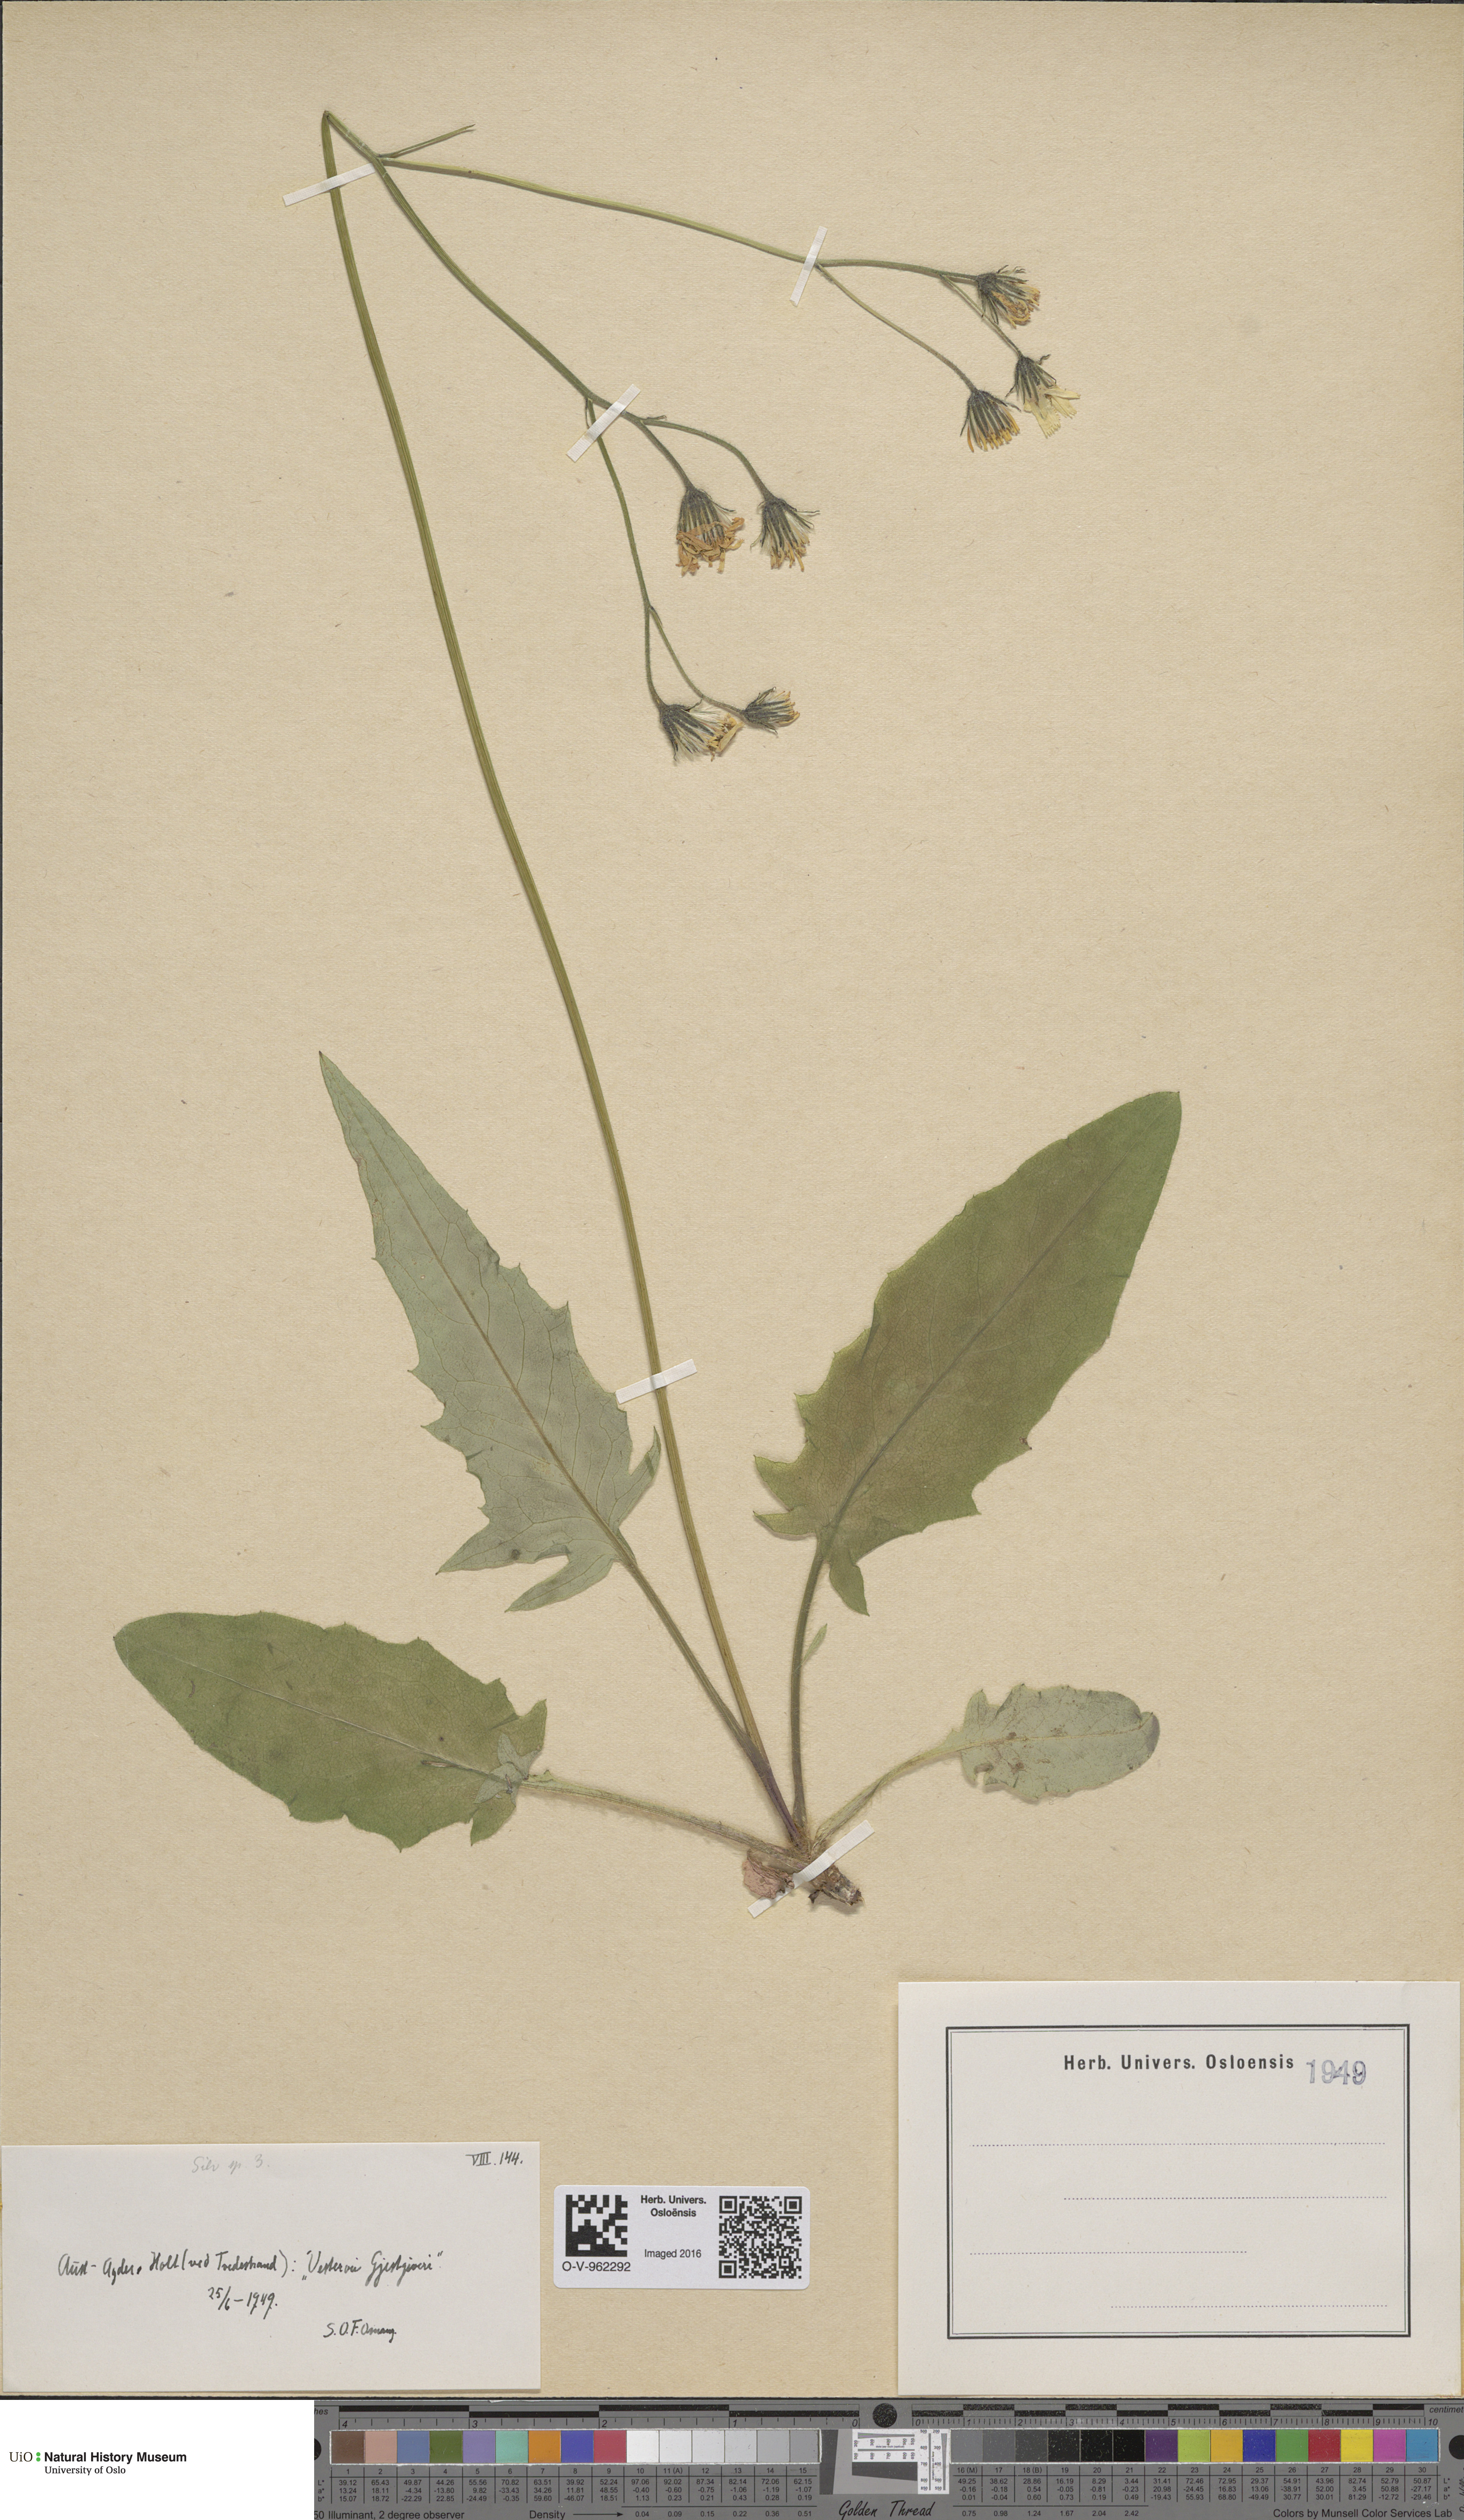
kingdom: Plantae
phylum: Tracheophyta
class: Magnoliopsida
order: Asterales
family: Asteraceae
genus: Hieracium
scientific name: Hieracium
